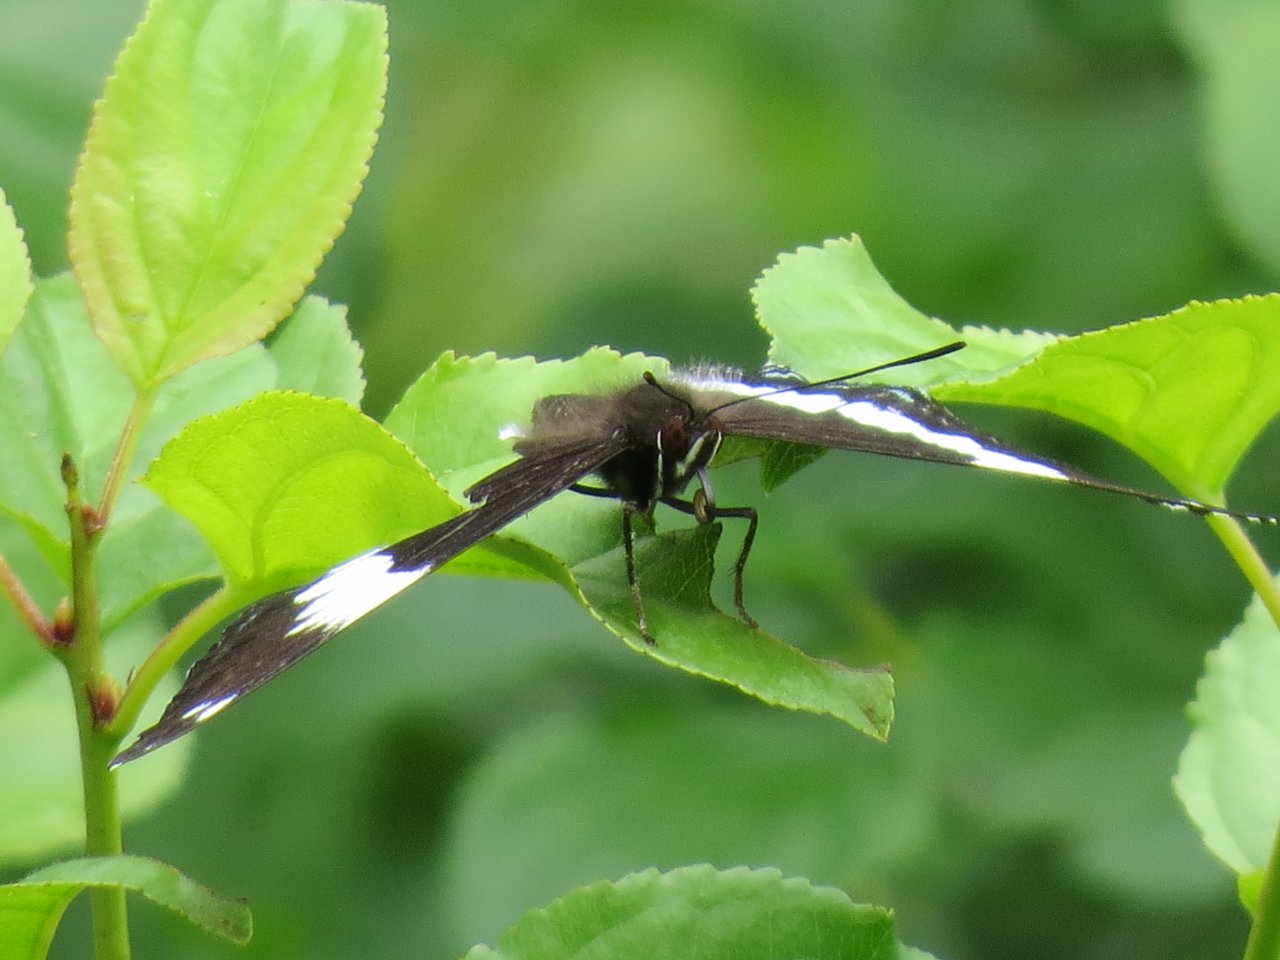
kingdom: Animalia
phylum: Arthropoda
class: Insecta
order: Lepidoptera
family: Nymphalidae
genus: Limenitis
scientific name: Limenitis arthemis
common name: Red-spotted Admiral
